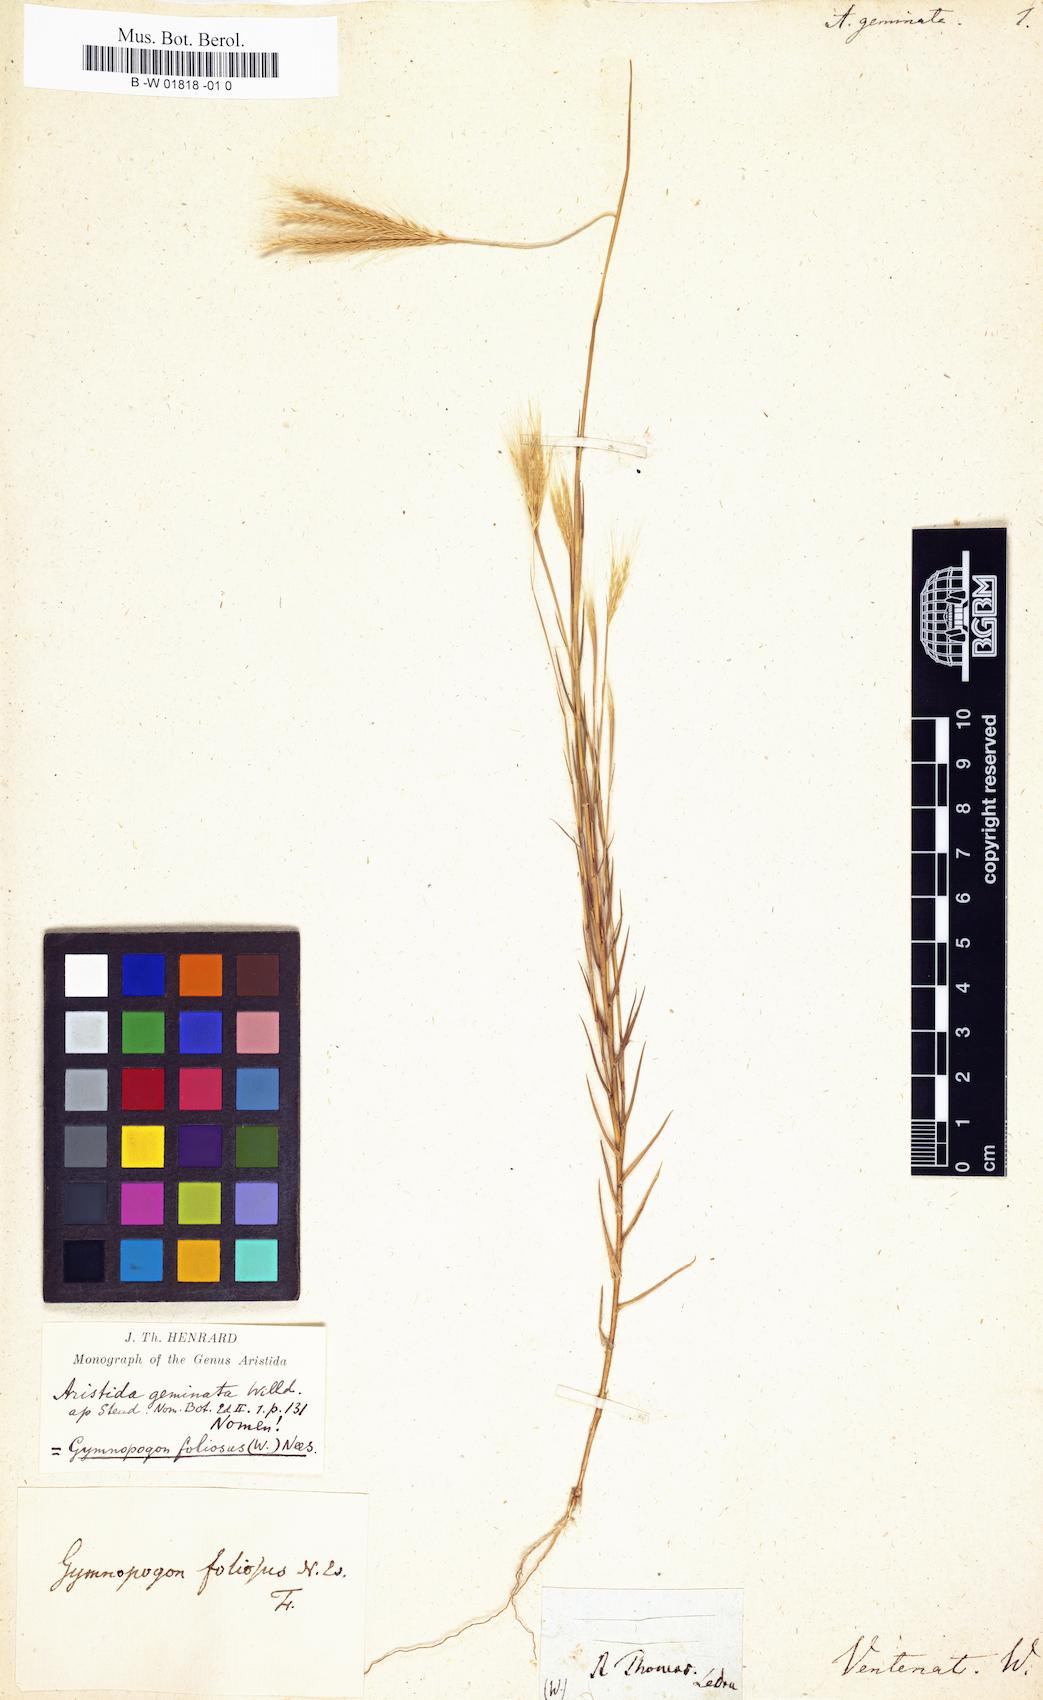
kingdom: Plantae
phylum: Tracheophyta
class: Liliopsida
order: Poales
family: Poaceae
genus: Gymnopogon
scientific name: Gymnopogon foliosus
